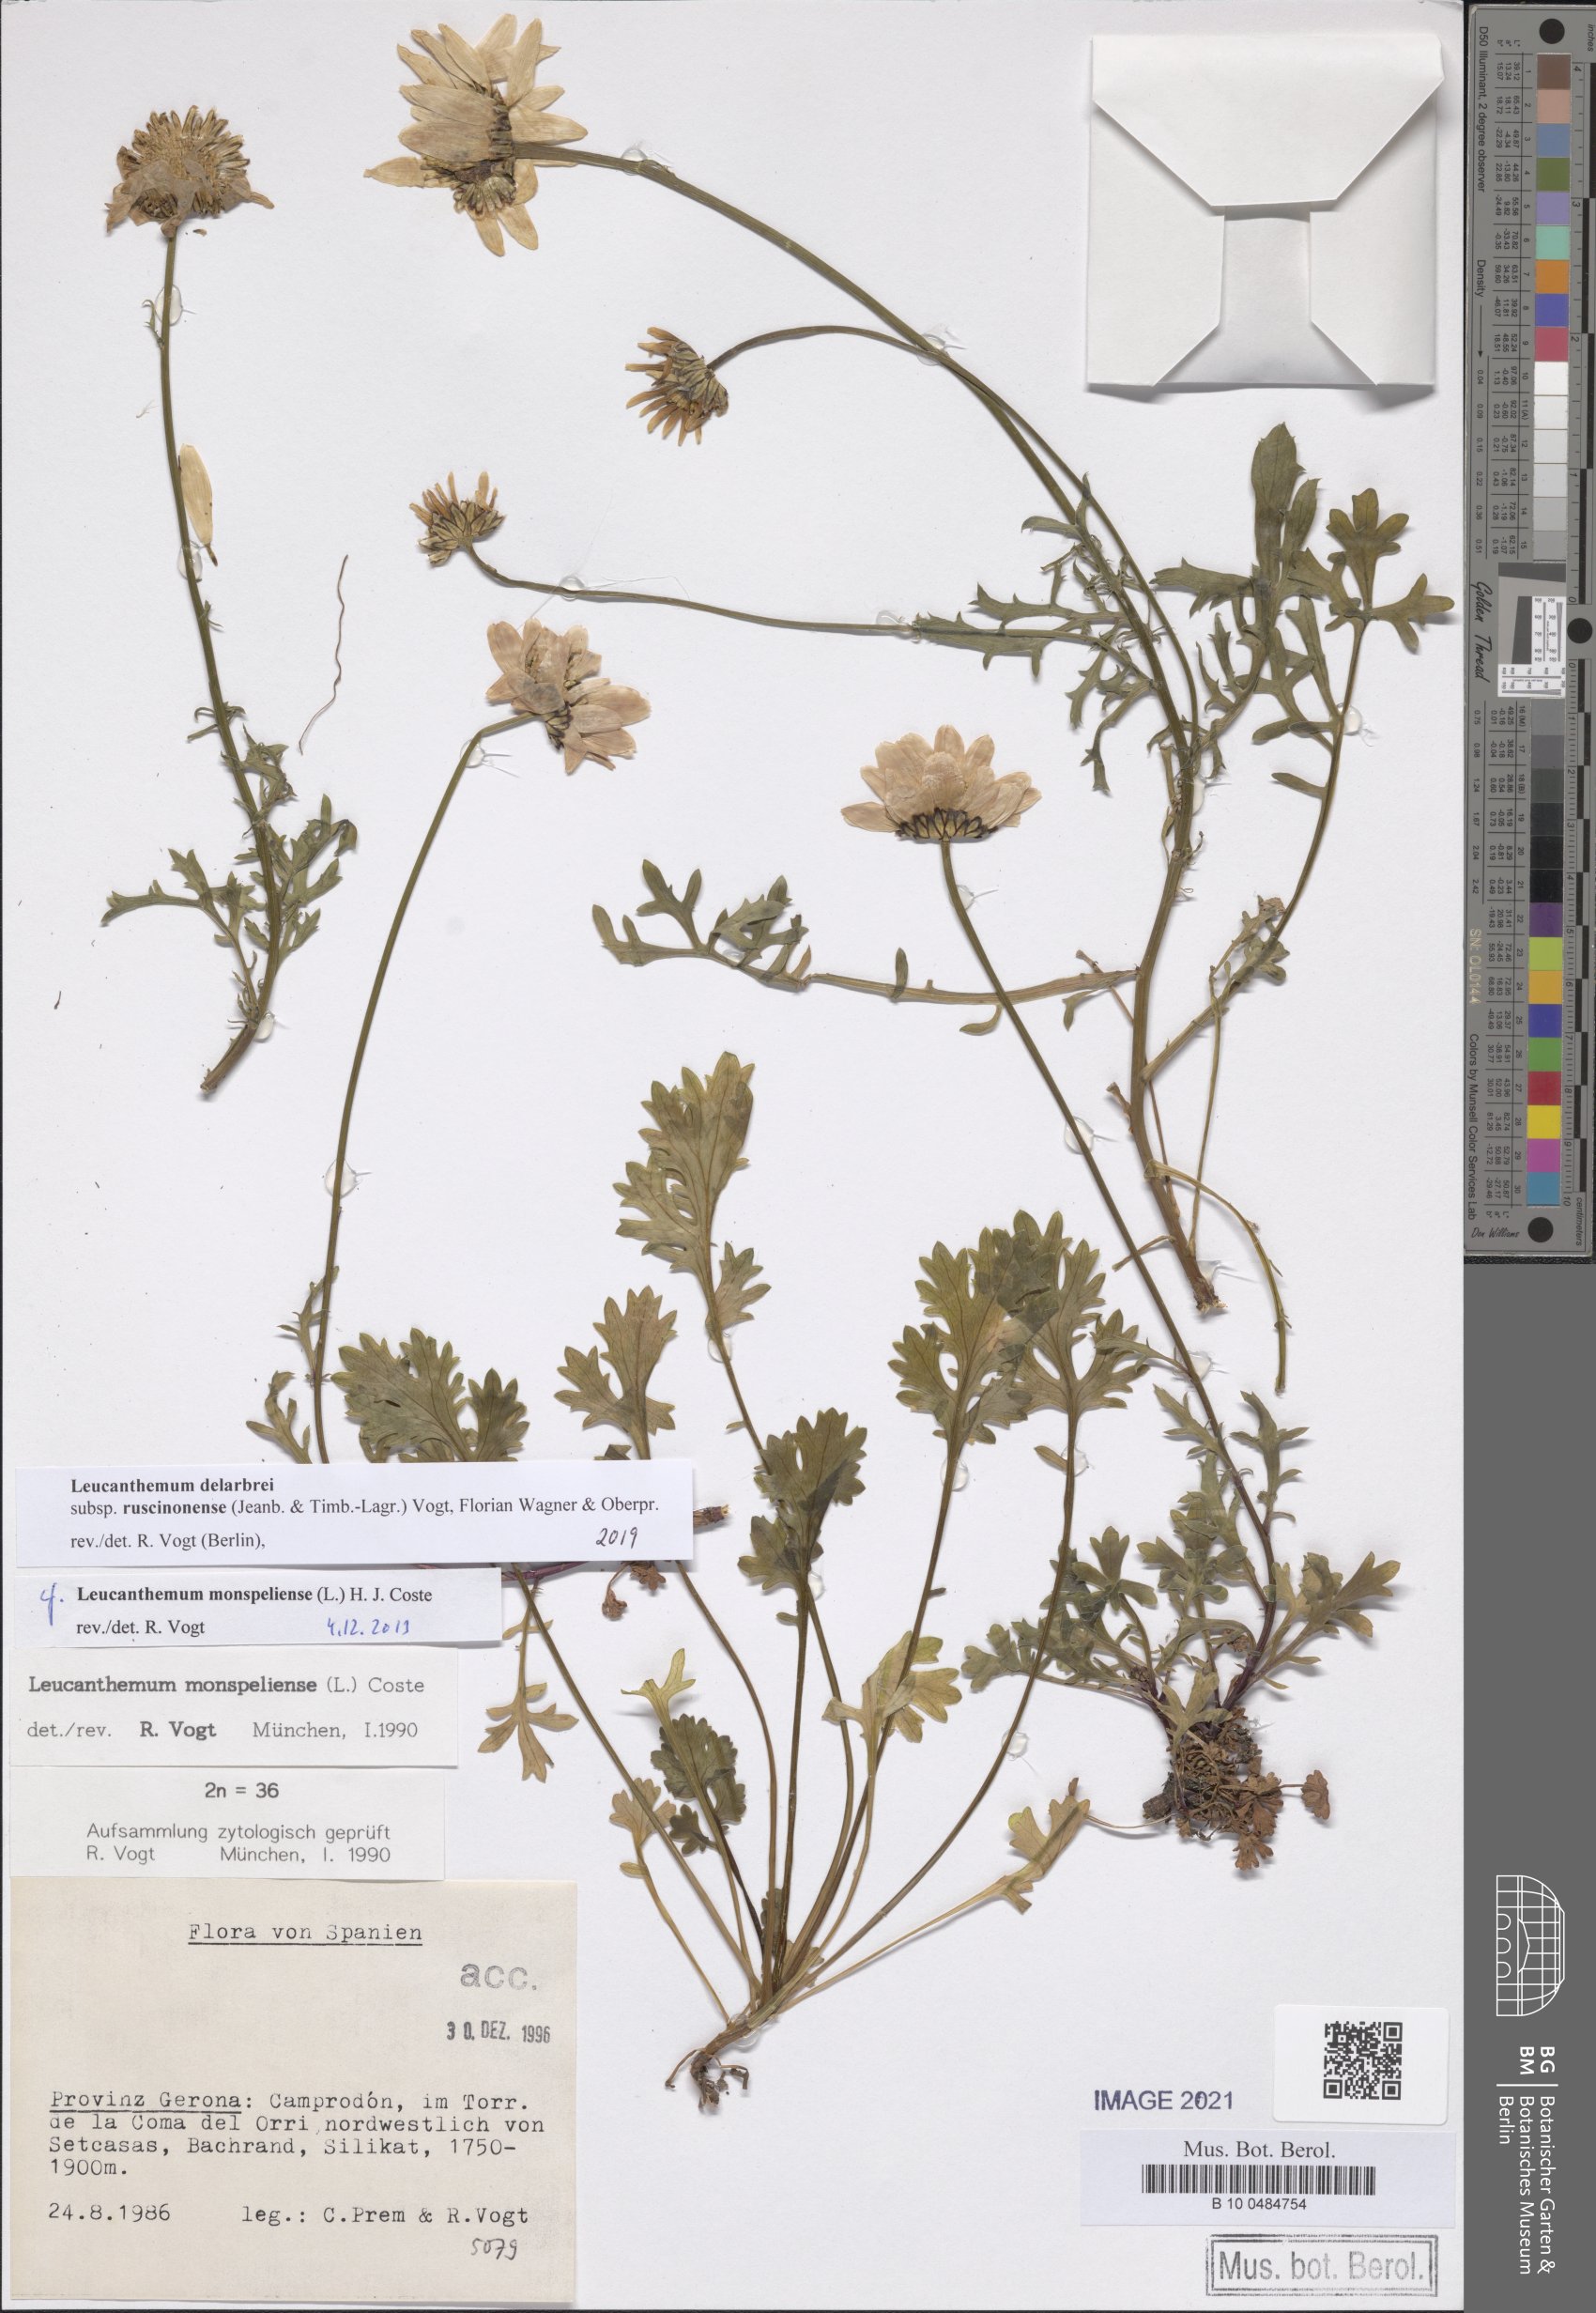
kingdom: Plantae
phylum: Tracheophyta
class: Magnoliopsida
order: Asterales
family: Asteraceae
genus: Leucanthemum
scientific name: Leucanthemum delarbrei
